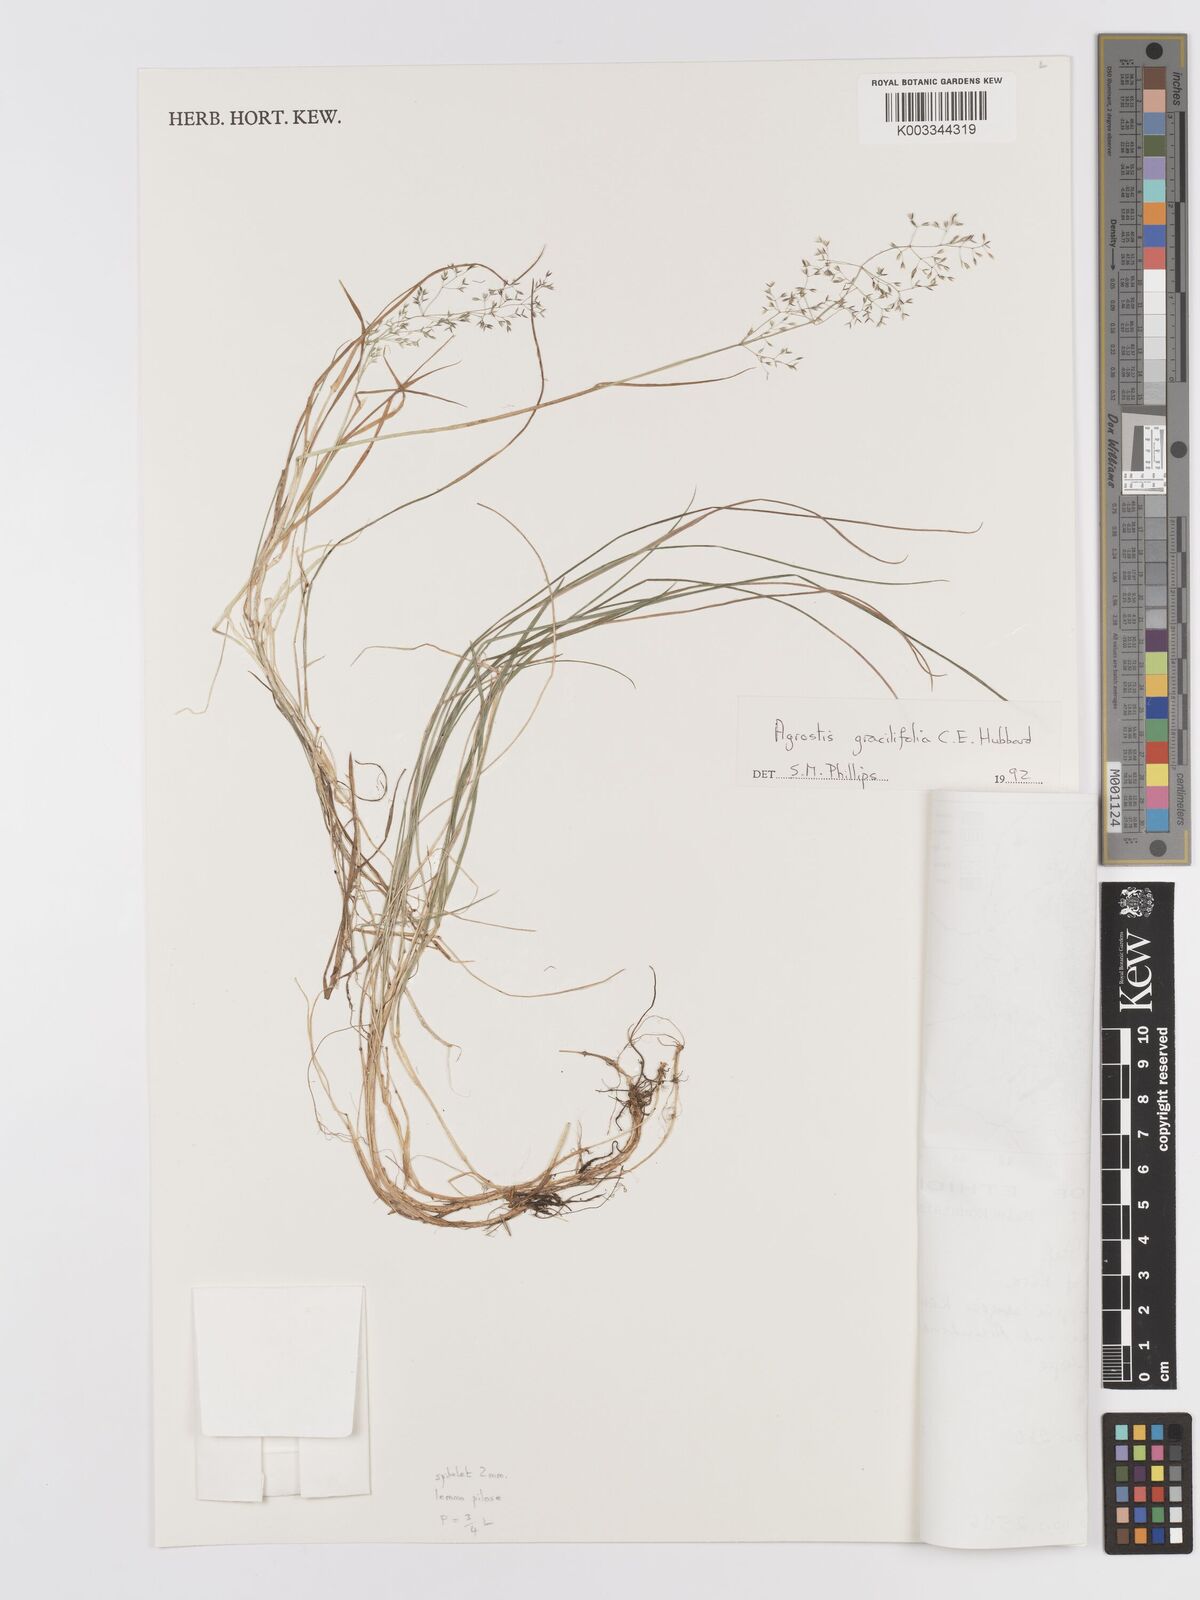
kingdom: Plantae
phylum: Tracheophyta
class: Liliopsida
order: Poales
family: Poaceae
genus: Agrostis
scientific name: Agrostis gracilifolia
